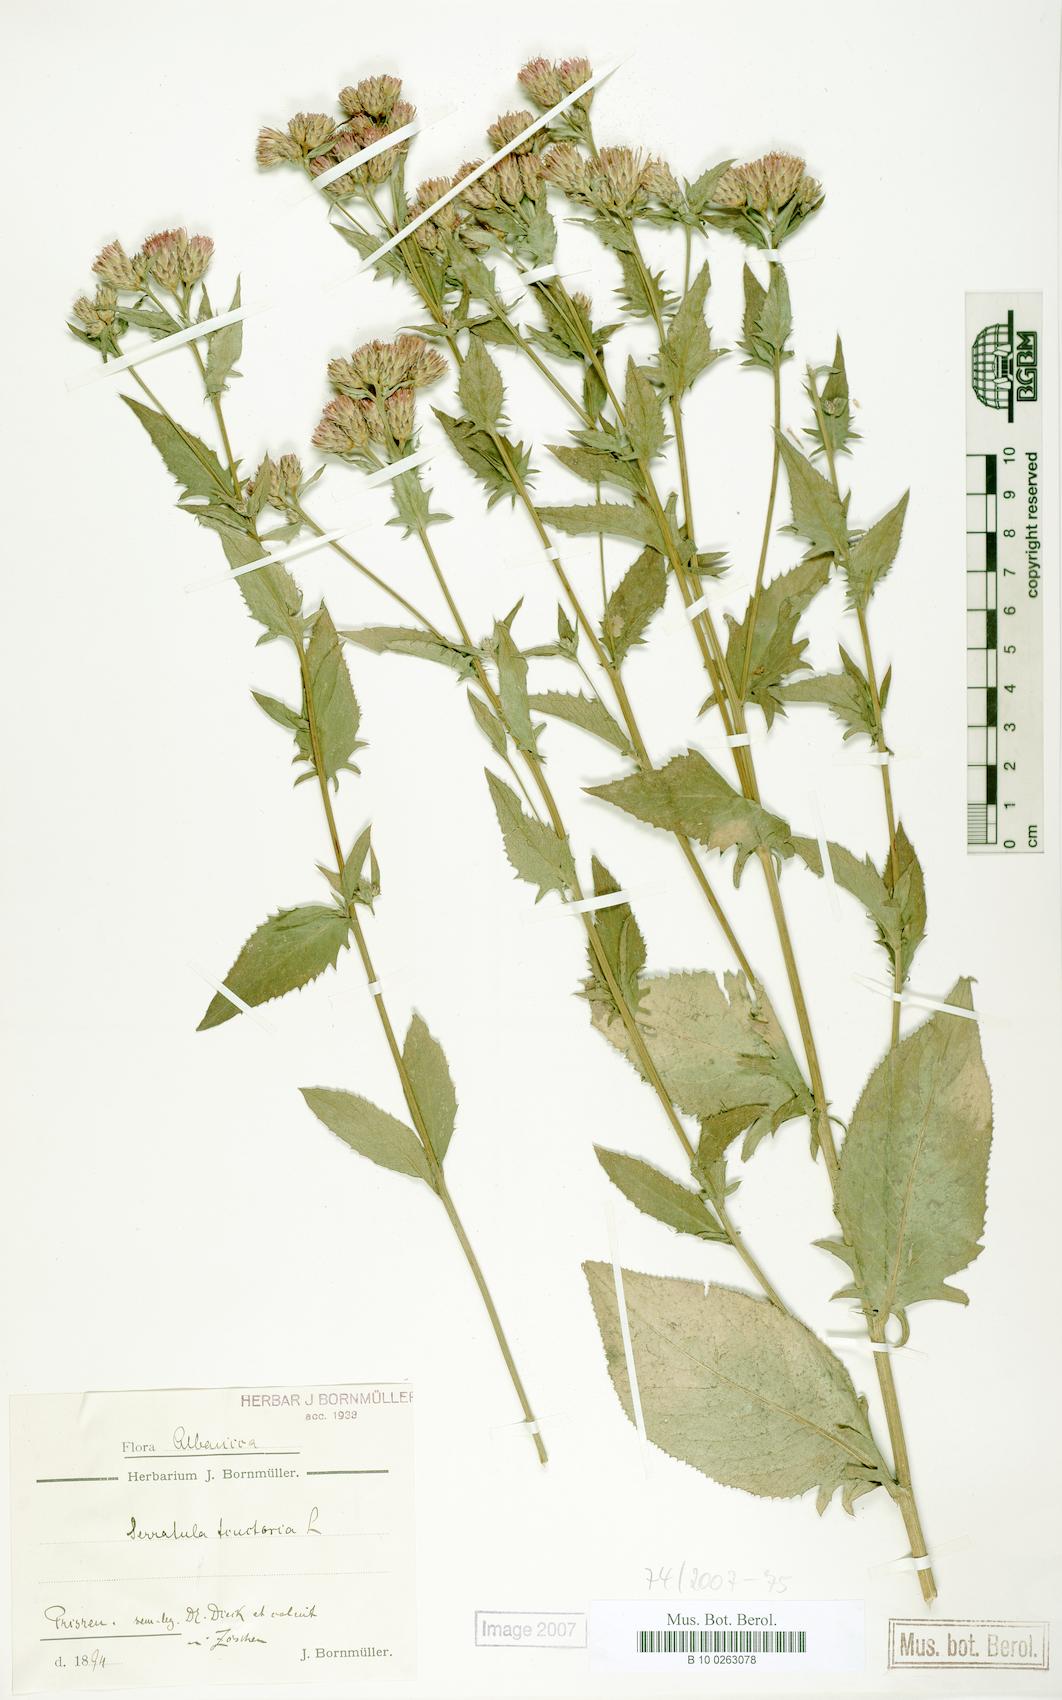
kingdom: Plantae
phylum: Tracheophyta
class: Magnoliopsida
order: Asterales
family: Asteraceae
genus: Serratula
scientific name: Serratula tinctoria
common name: Saw-wort
